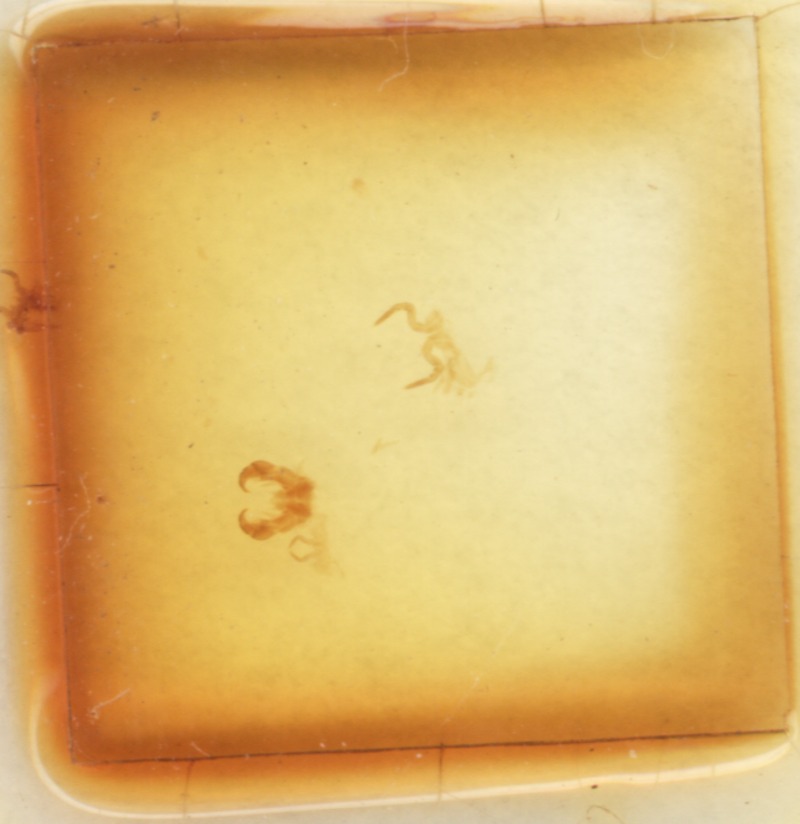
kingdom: Animalia
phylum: Arthropoda
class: Diplopoda
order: Glomerida
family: Glomeridae
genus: Glomeris
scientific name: Glomeris pielachiana
